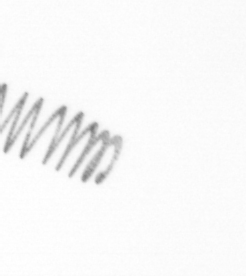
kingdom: Chromista
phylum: Ochrophyta
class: Bacillariophyceae
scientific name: Bacillariophyceae
